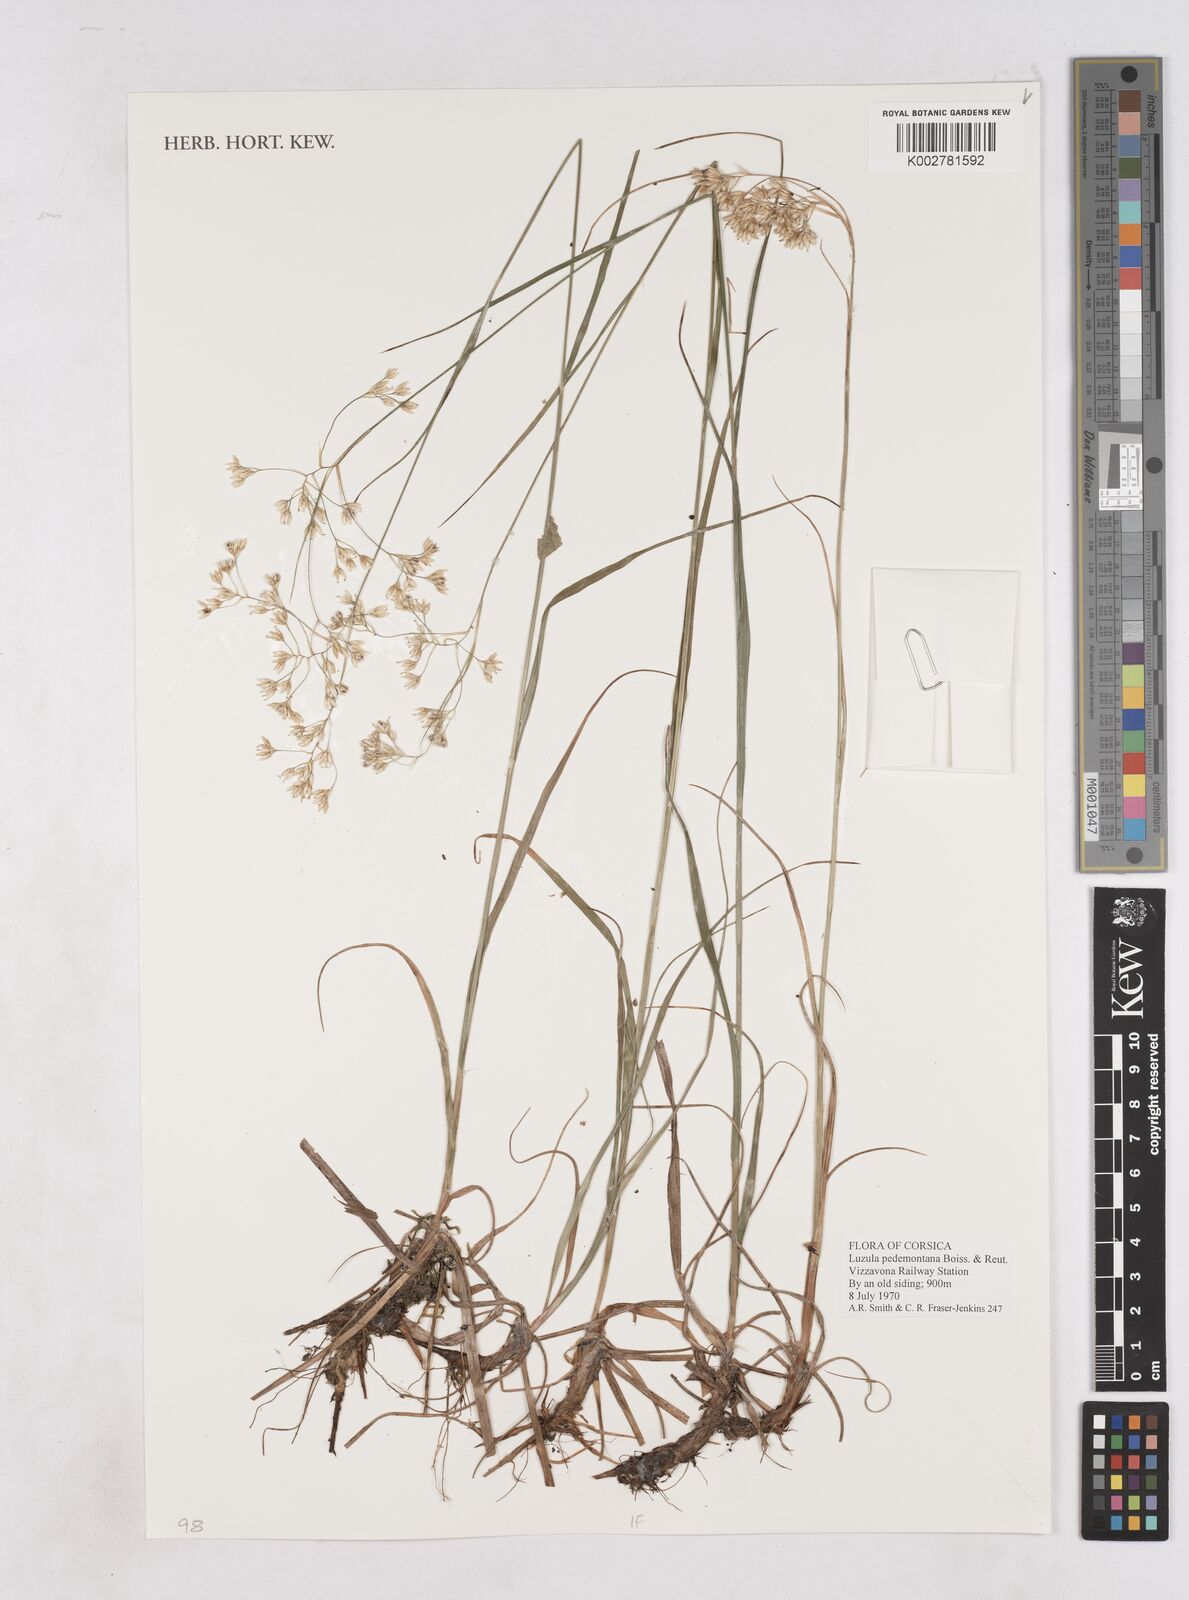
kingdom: Plantae
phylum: Tracheophyta
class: Liliopsida
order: Poales
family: Juncaceae
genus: Luzula
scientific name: Luzula pedemontana
